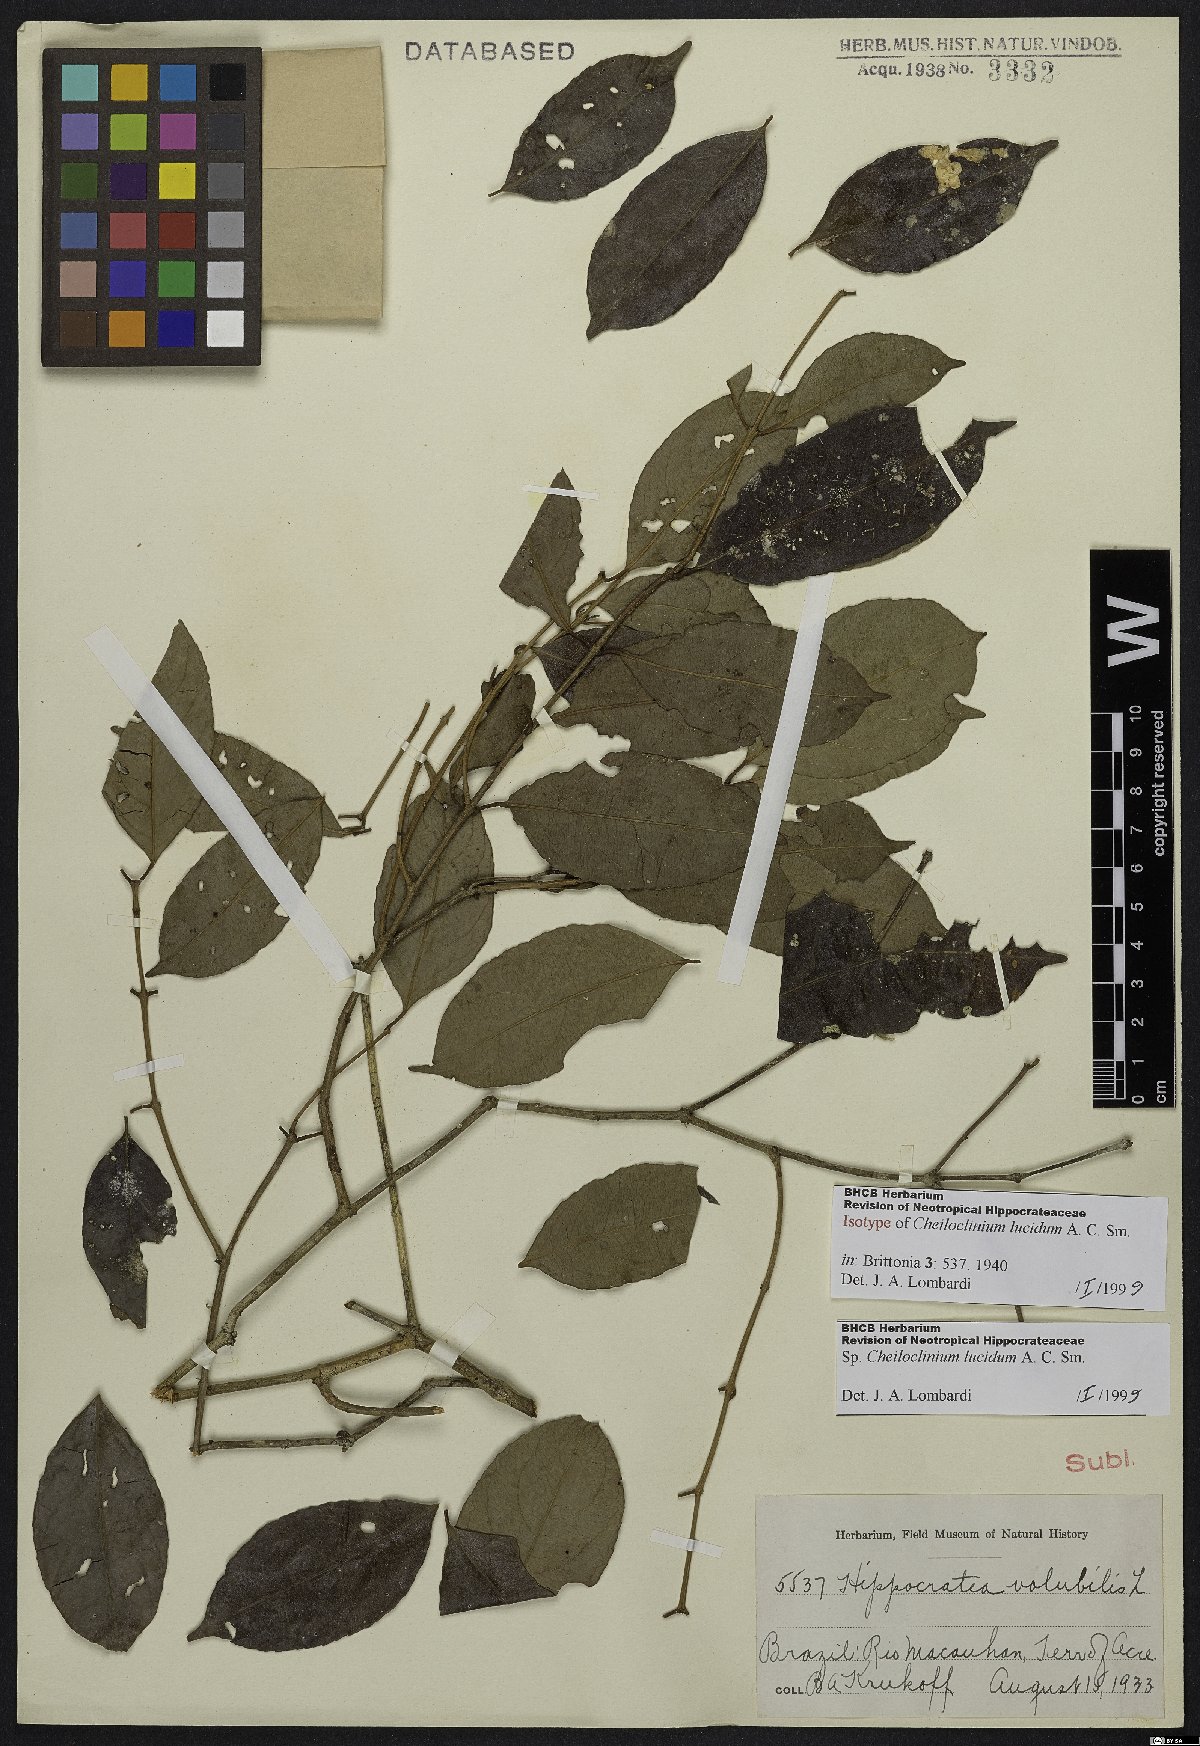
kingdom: Plantae
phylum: Tracheophyta
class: Magnoliopsida
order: Celastrales
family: Celastraceae
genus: Cheiloclinium
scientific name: Cheiloclinium serratum
